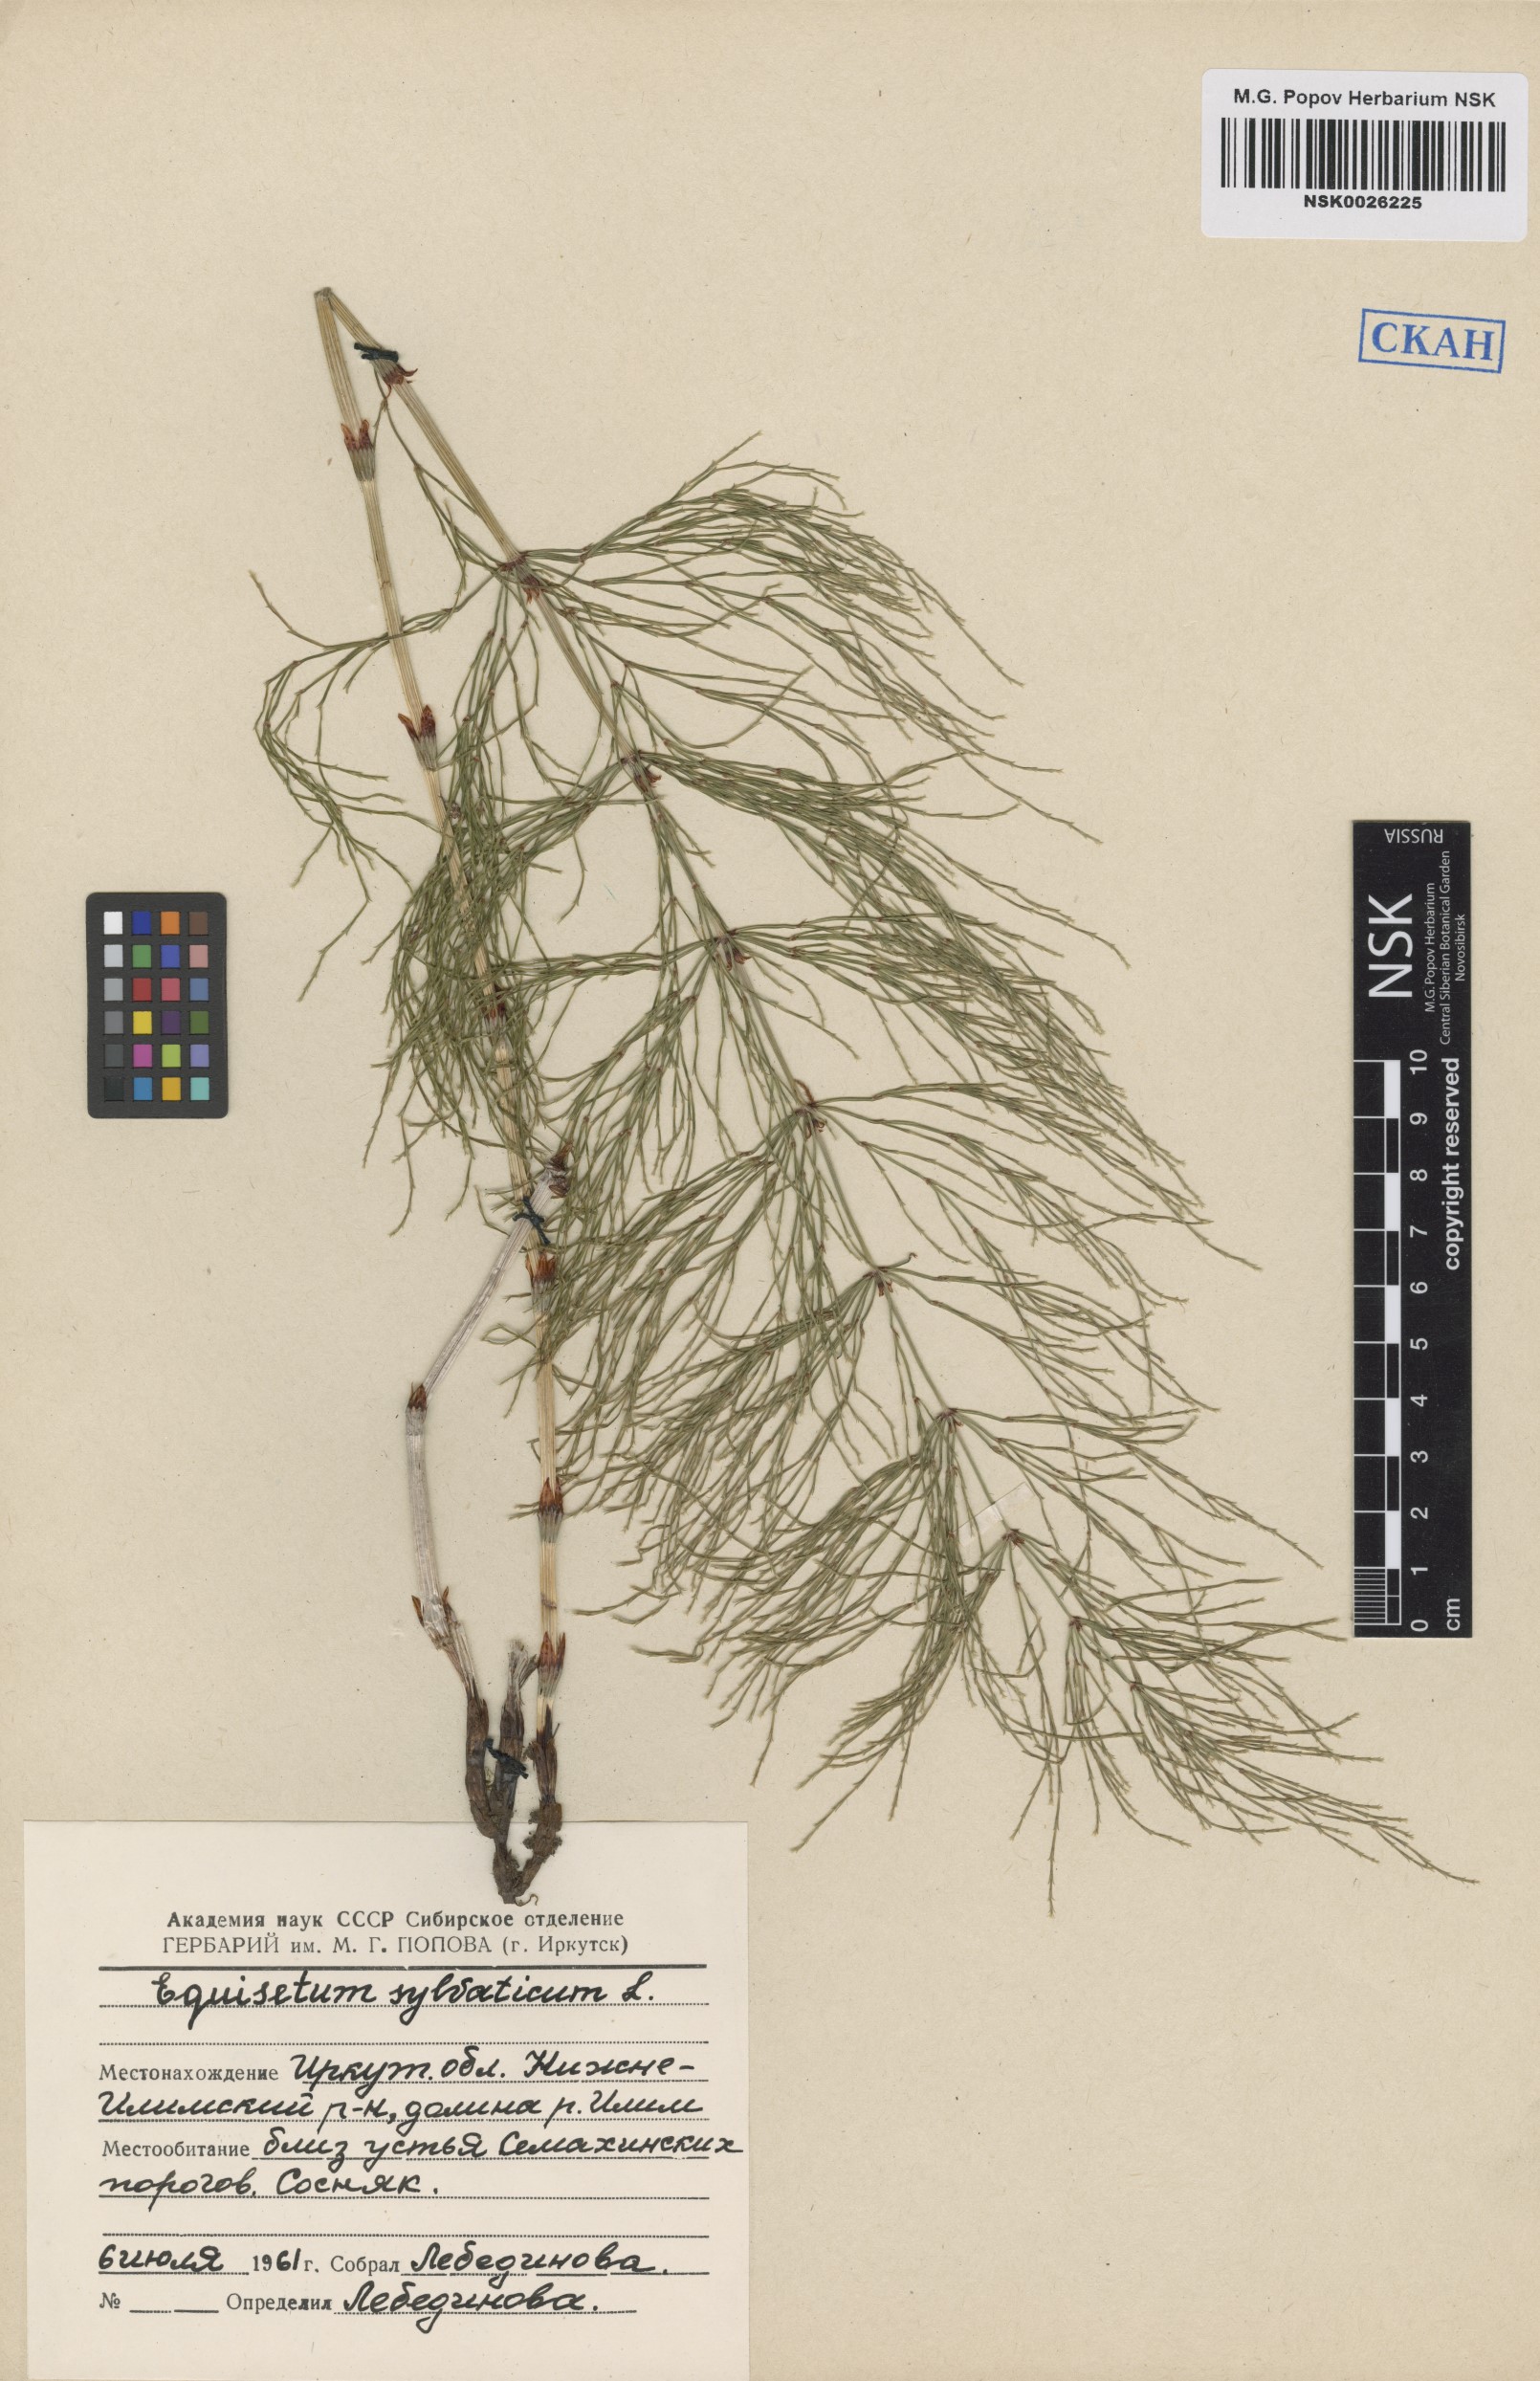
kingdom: Plantae
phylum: Tracheophyta
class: Polypodiopsida
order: Equisetales
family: Equisetaceae
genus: Equisetum
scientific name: Equisetum sylvaticum
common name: Wood horsetail
